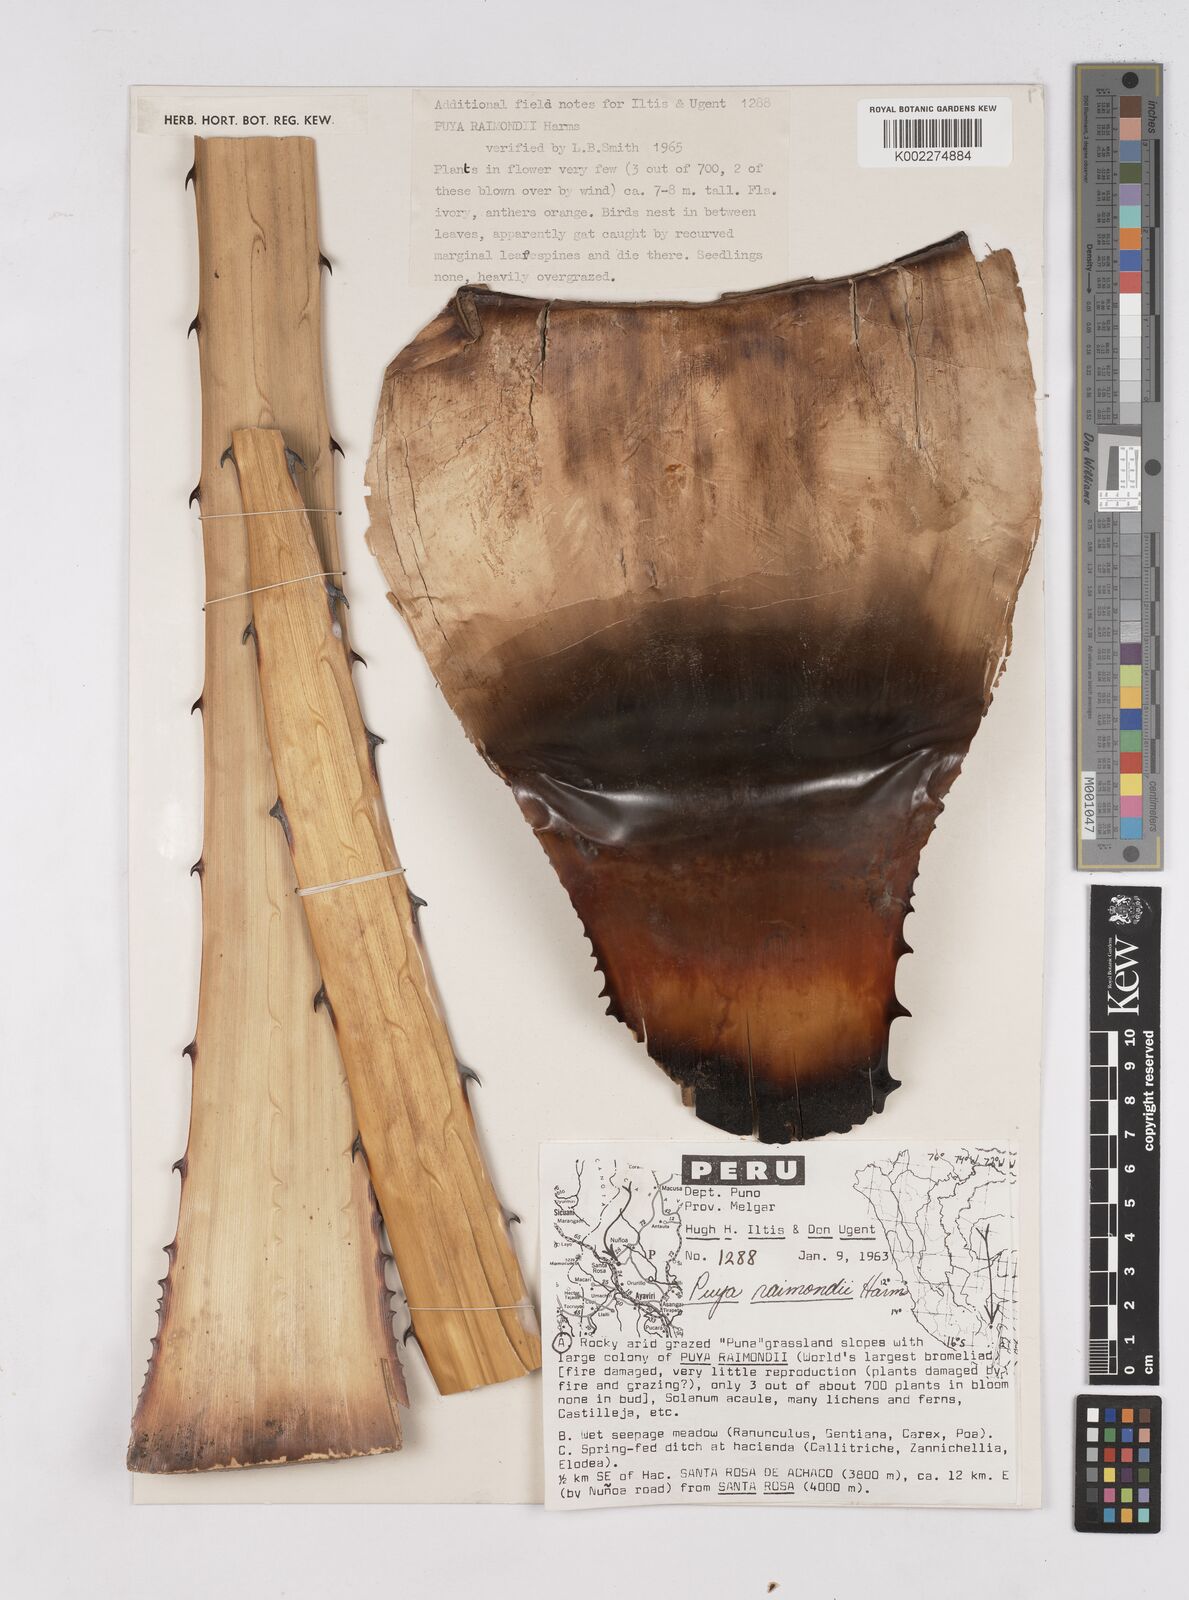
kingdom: Plantae
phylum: Tracheophyta
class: Liliopsida
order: Poales
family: Bromeliaceae
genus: Puya
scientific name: Puya raimondii
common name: Queen of the andes
